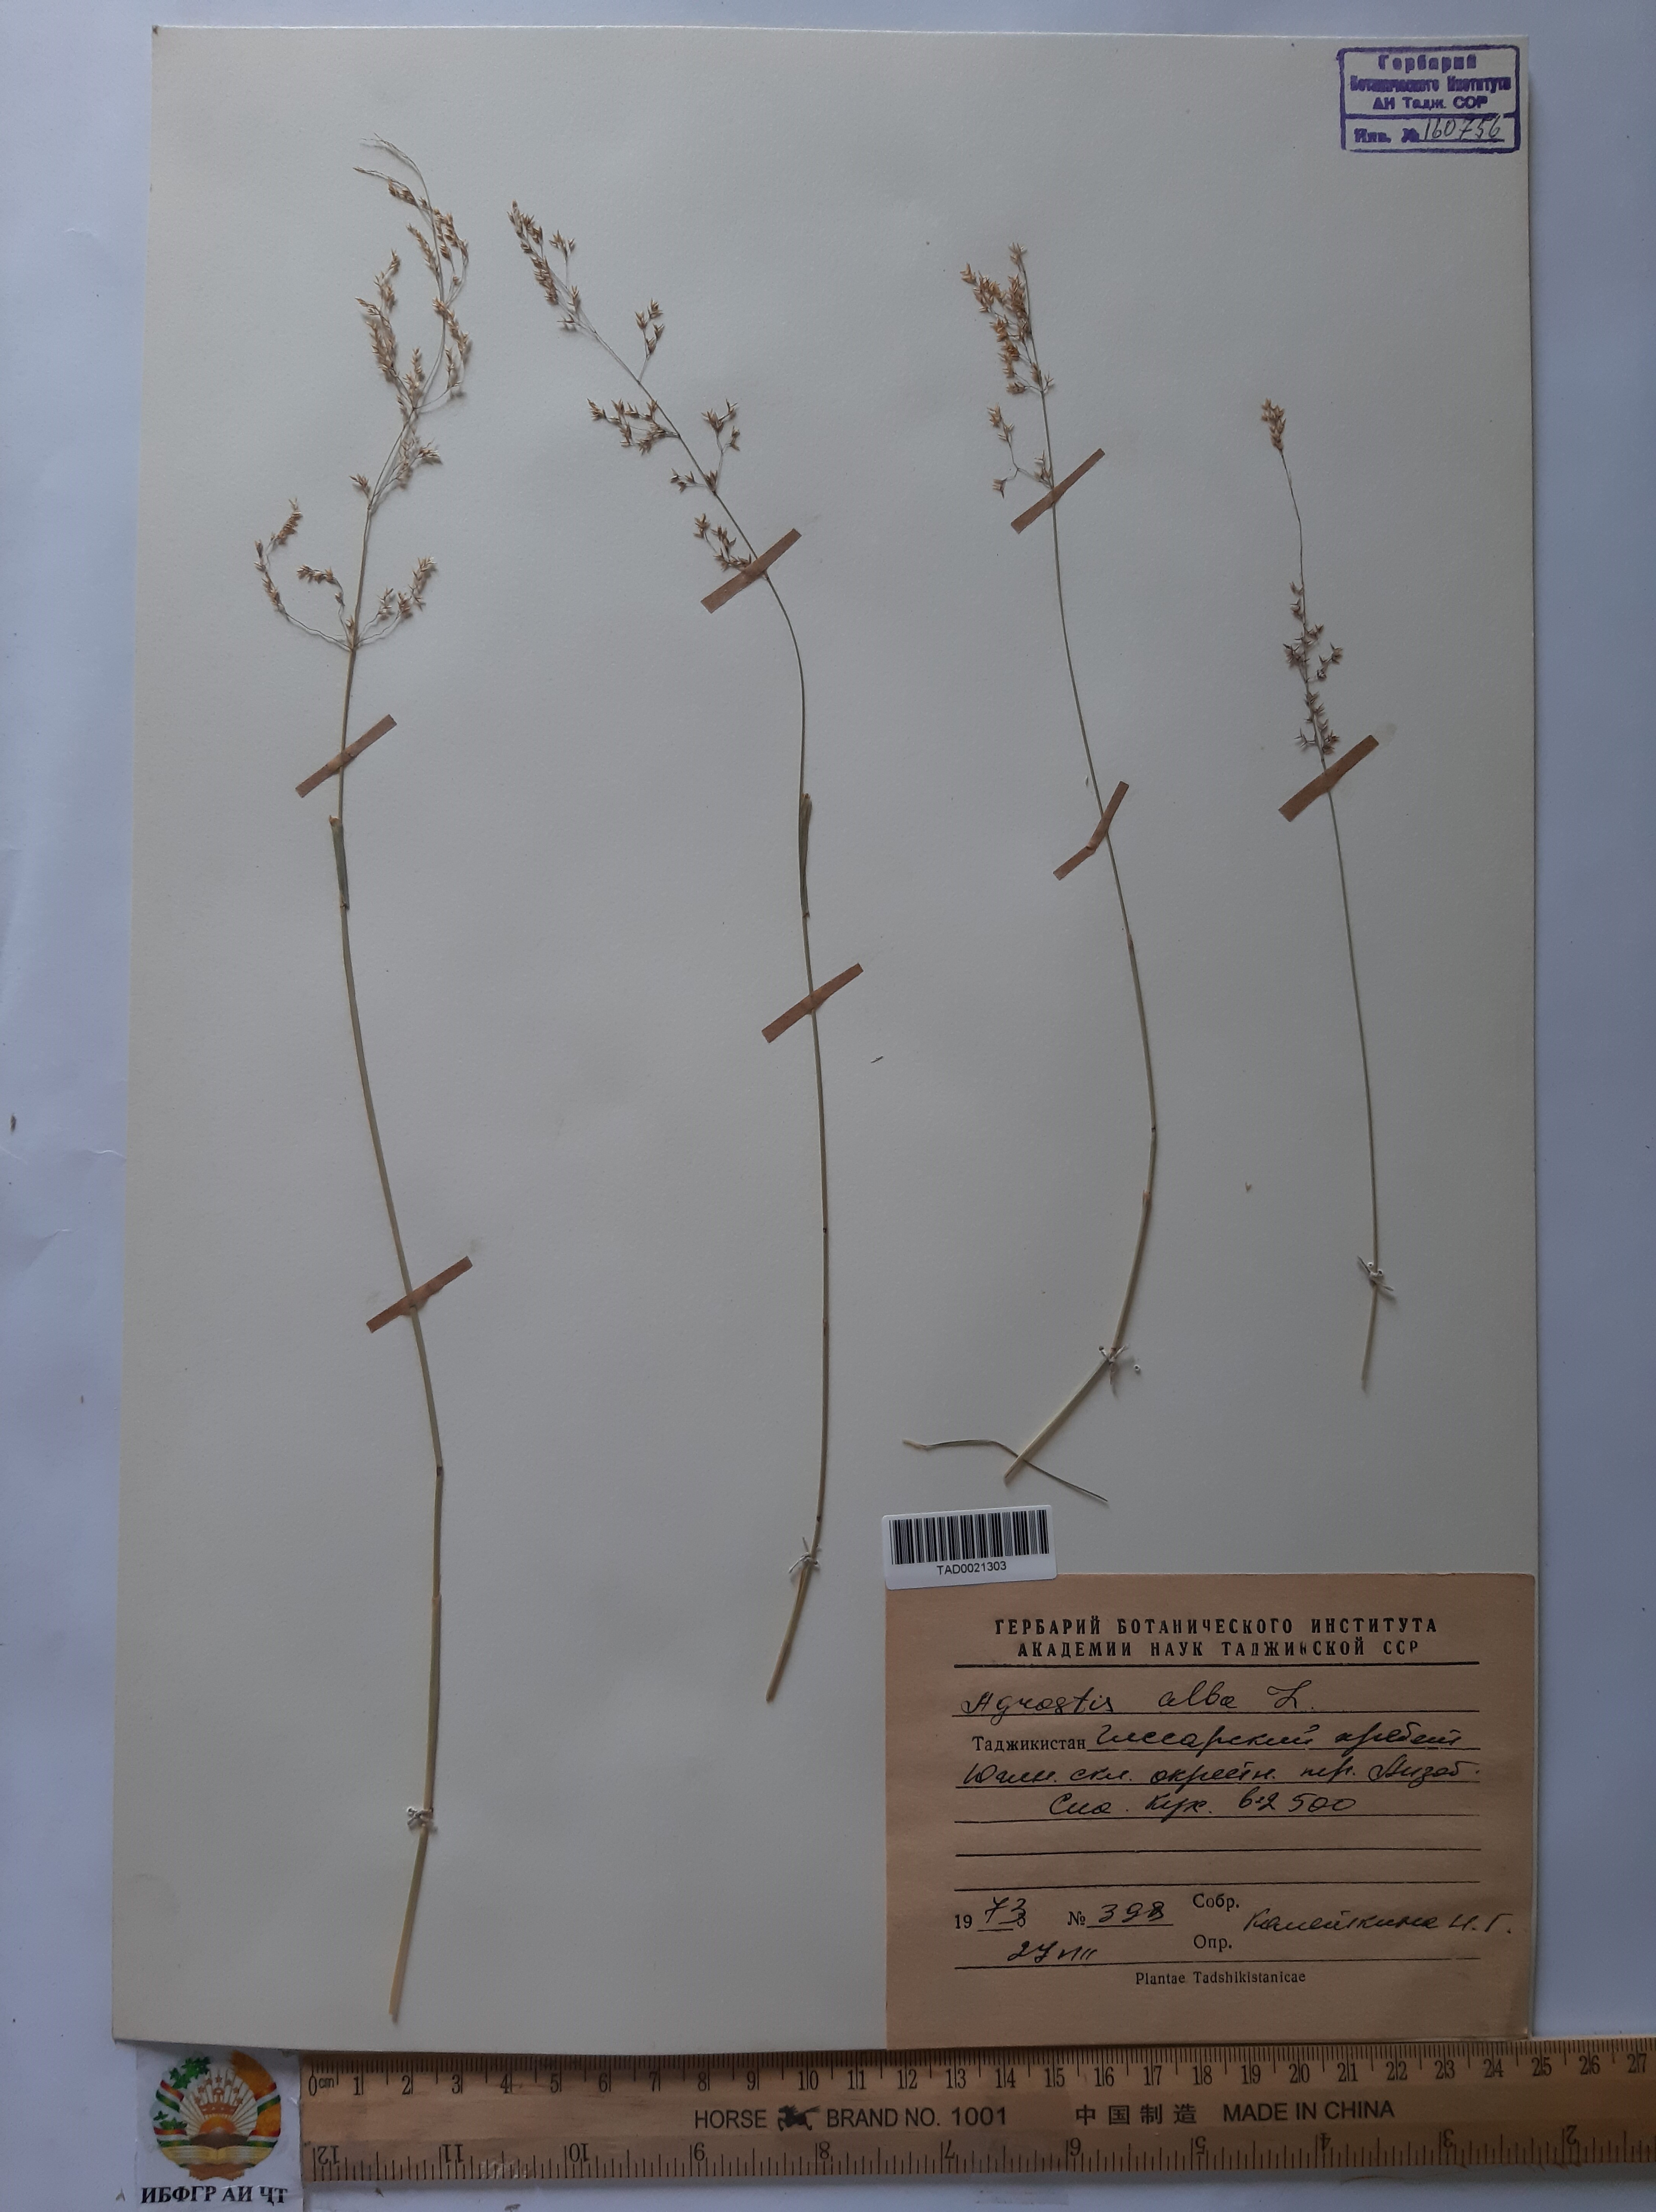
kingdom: Plantae
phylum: Tracheophyta
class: Liliopsida
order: Poales
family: Poaceae
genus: Poa
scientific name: Poa nemoralis
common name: Wood bluegrass
